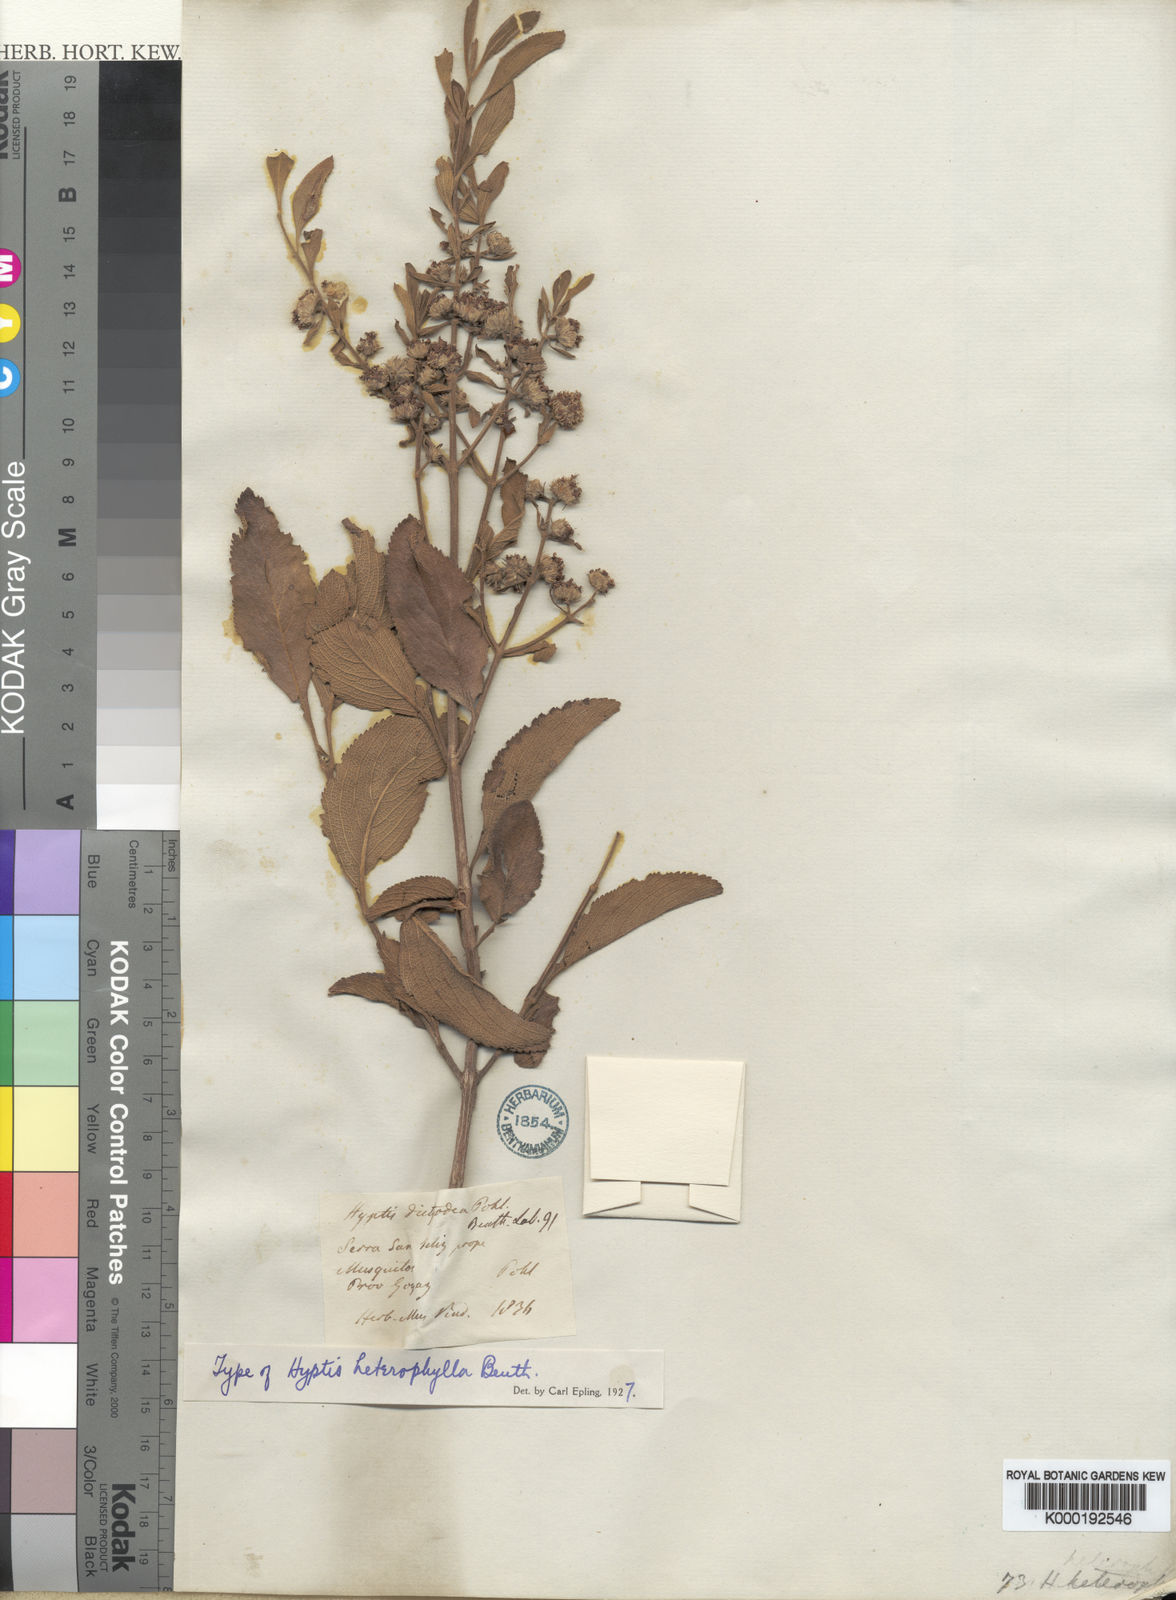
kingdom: Plantae
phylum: Tracheophyta
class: Magnoliopsida
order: Lamiales
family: Lamiaceae
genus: Hyptis
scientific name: Hyptis heterophylla
